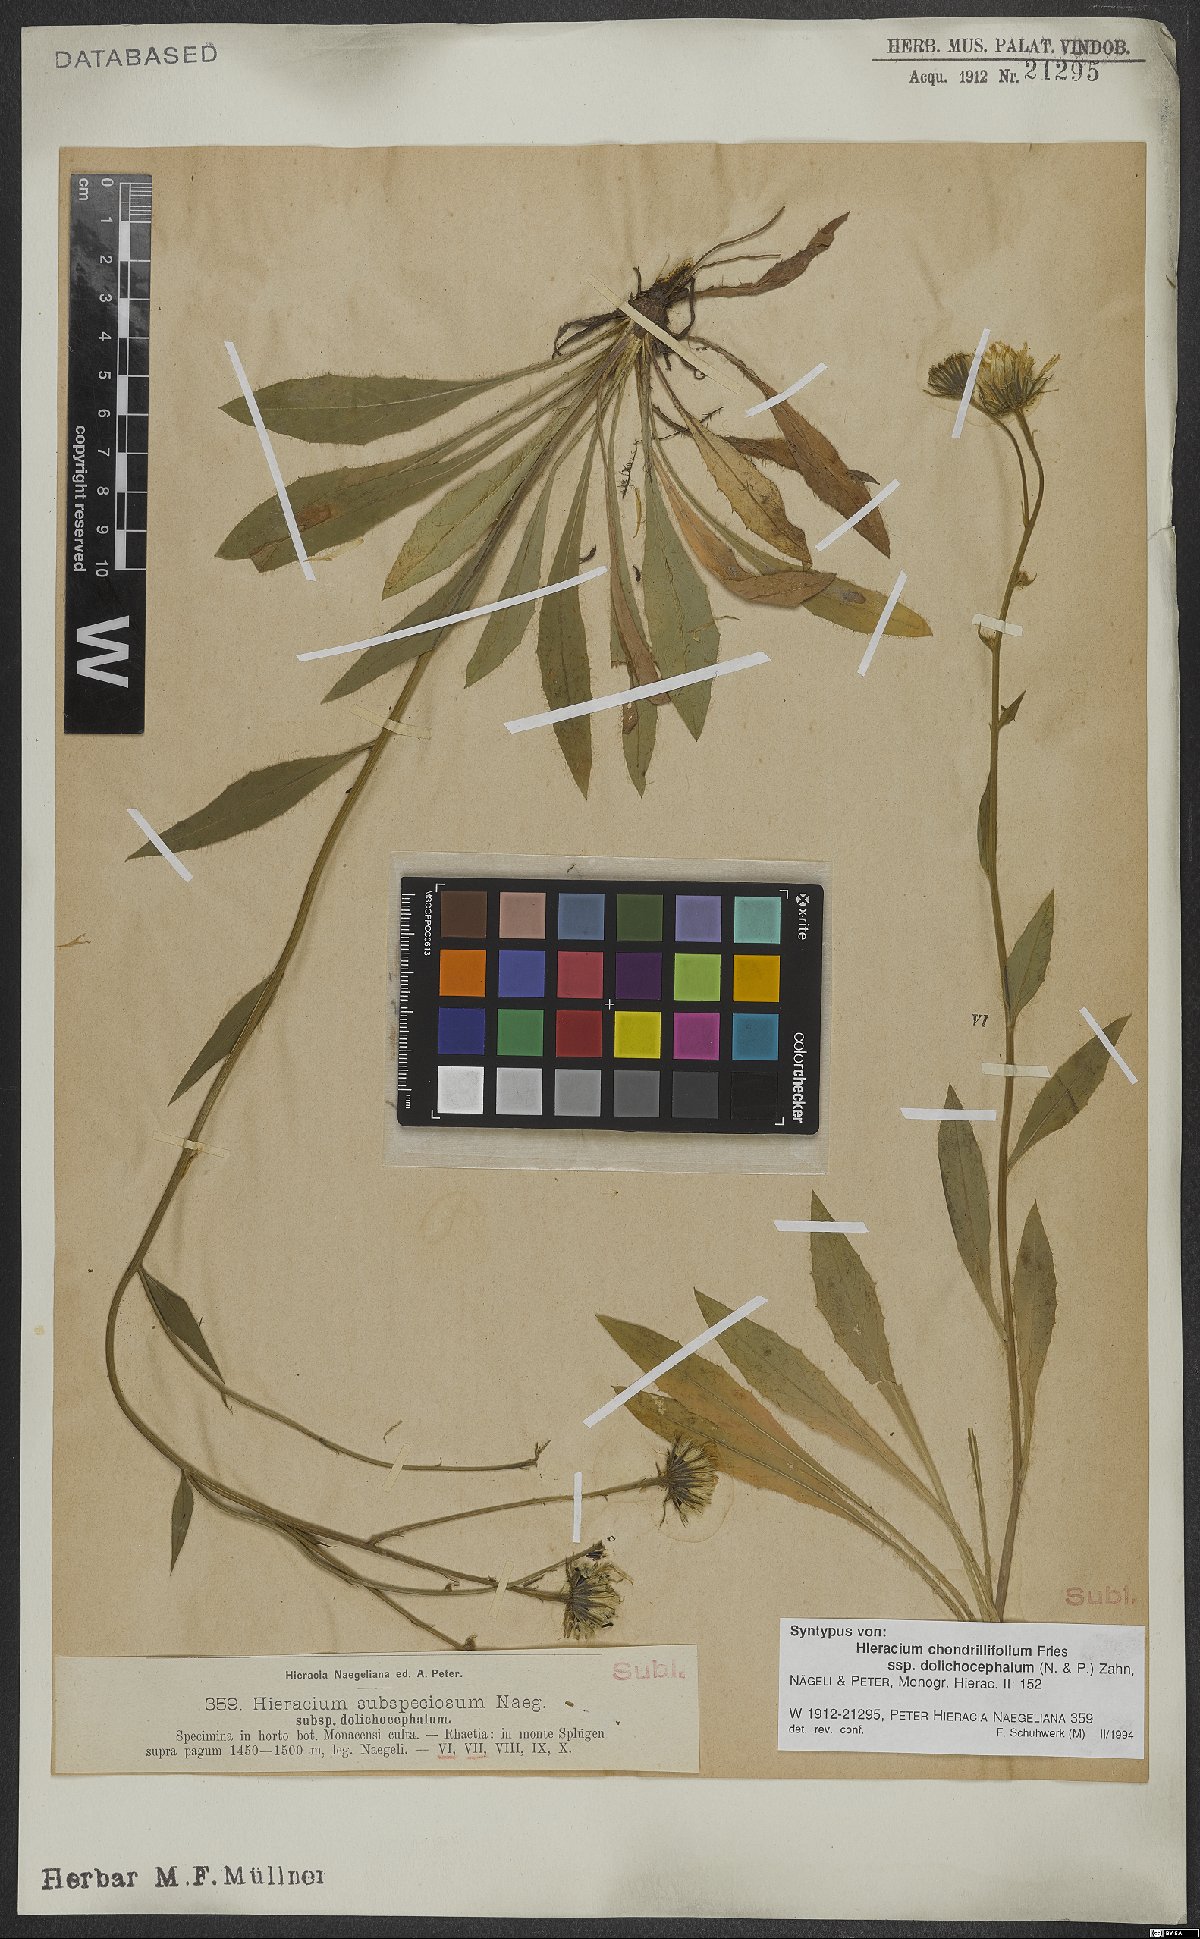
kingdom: Plantae
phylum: Tracheophyta
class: Magnoliopsida
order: Asterales
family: Asteraceae
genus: Hieracium
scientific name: Hieracium chondrillifolium
